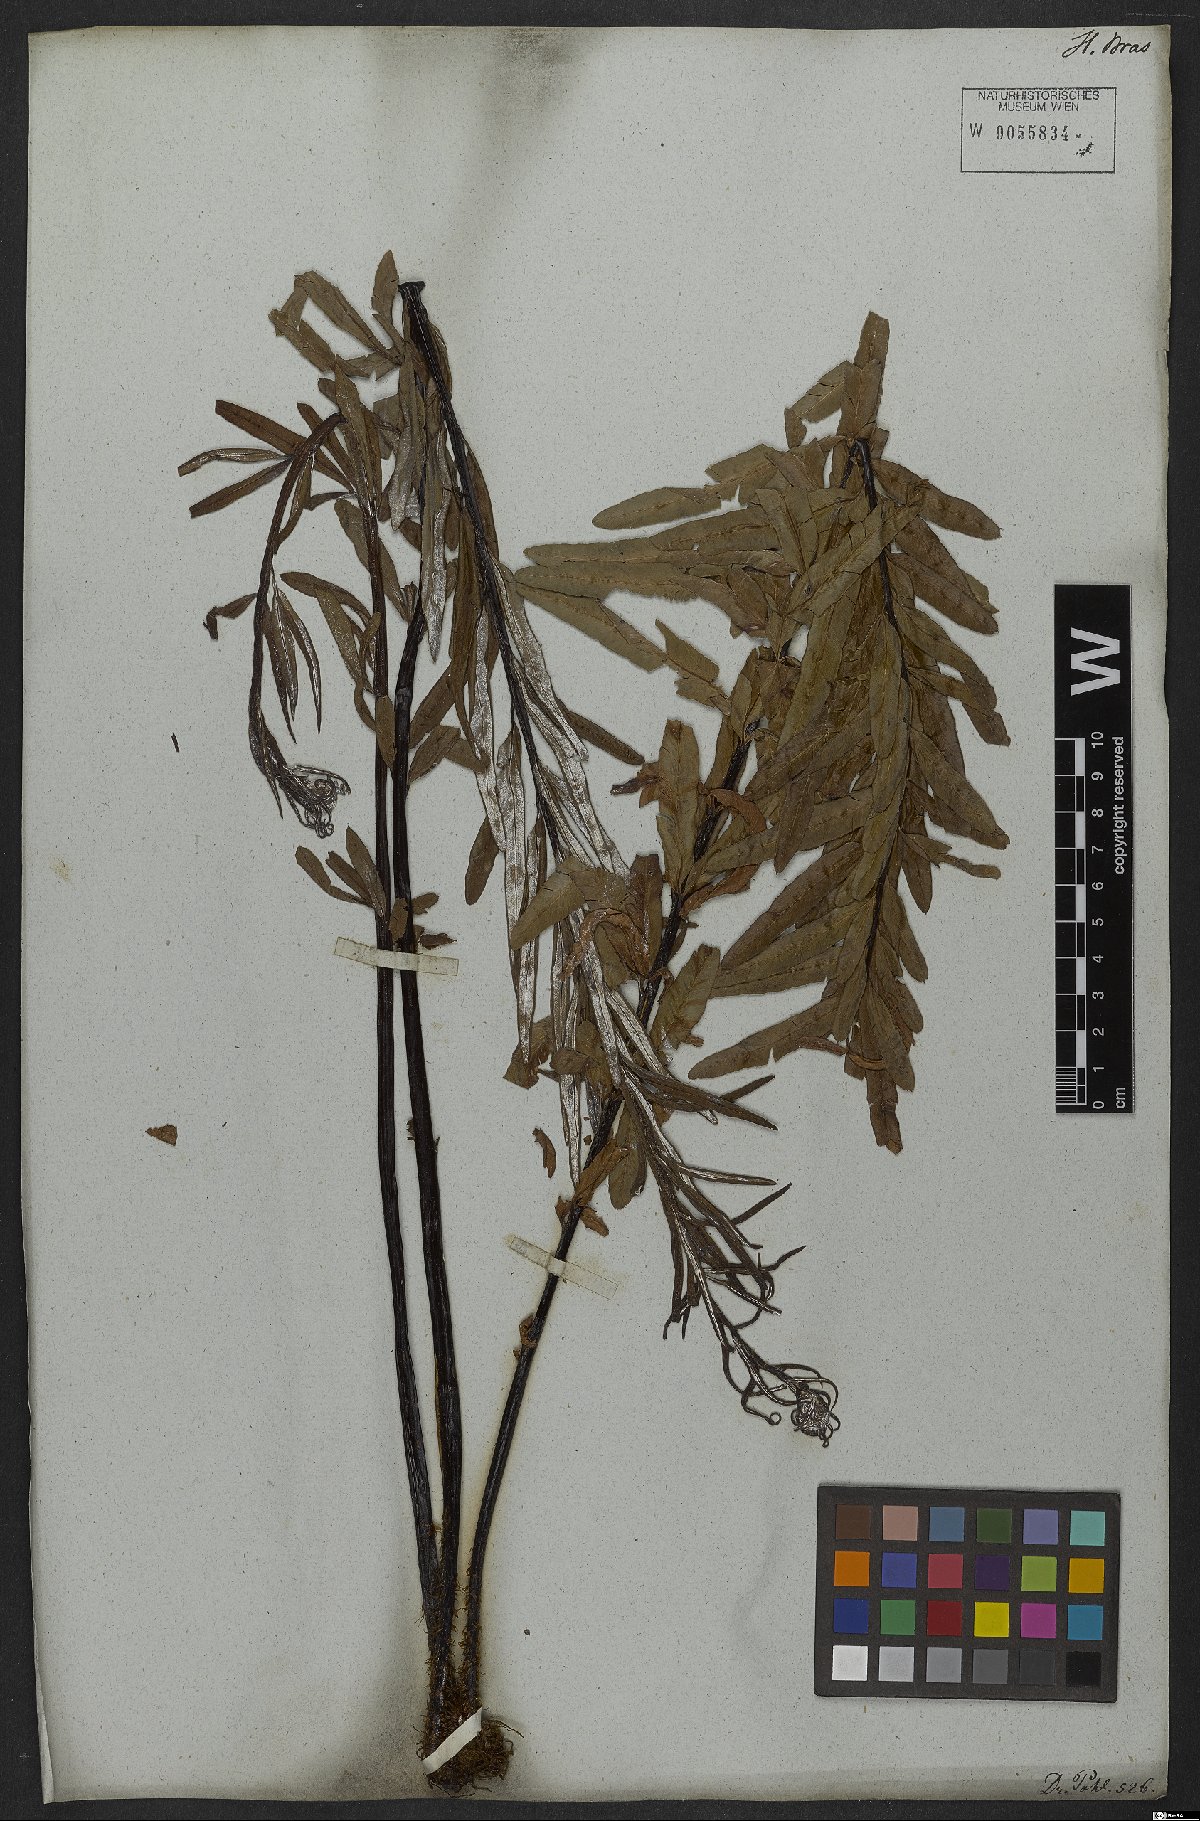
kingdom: Plantae
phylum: Tracheophyta
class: Polypodiopsida
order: Polypodiales
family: Pteridaceae
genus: Pityrogramma
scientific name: Pityrogramma trifoliata
